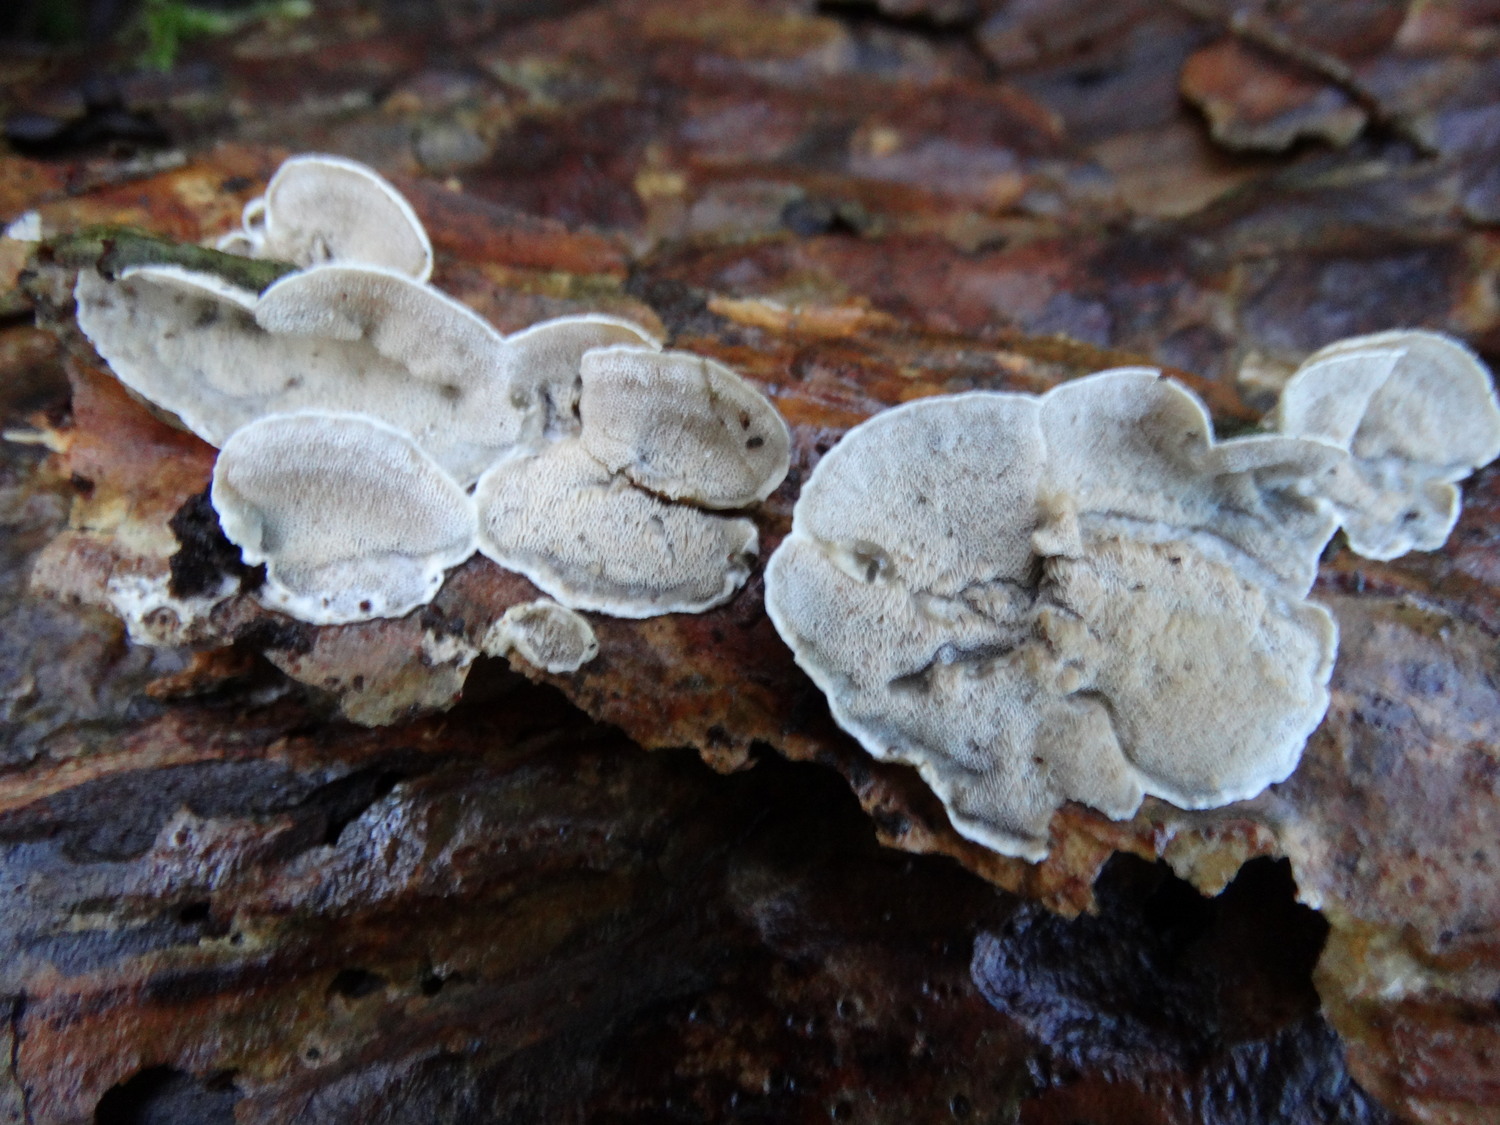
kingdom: Fungi
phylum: Basidiomycota
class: Agaricomycetes
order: Polyporales
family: Incrustoporiaceae
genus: Skeletocutis
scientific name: Skeletocutis carneogrisea
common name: rødgrå krystalporesvamp
